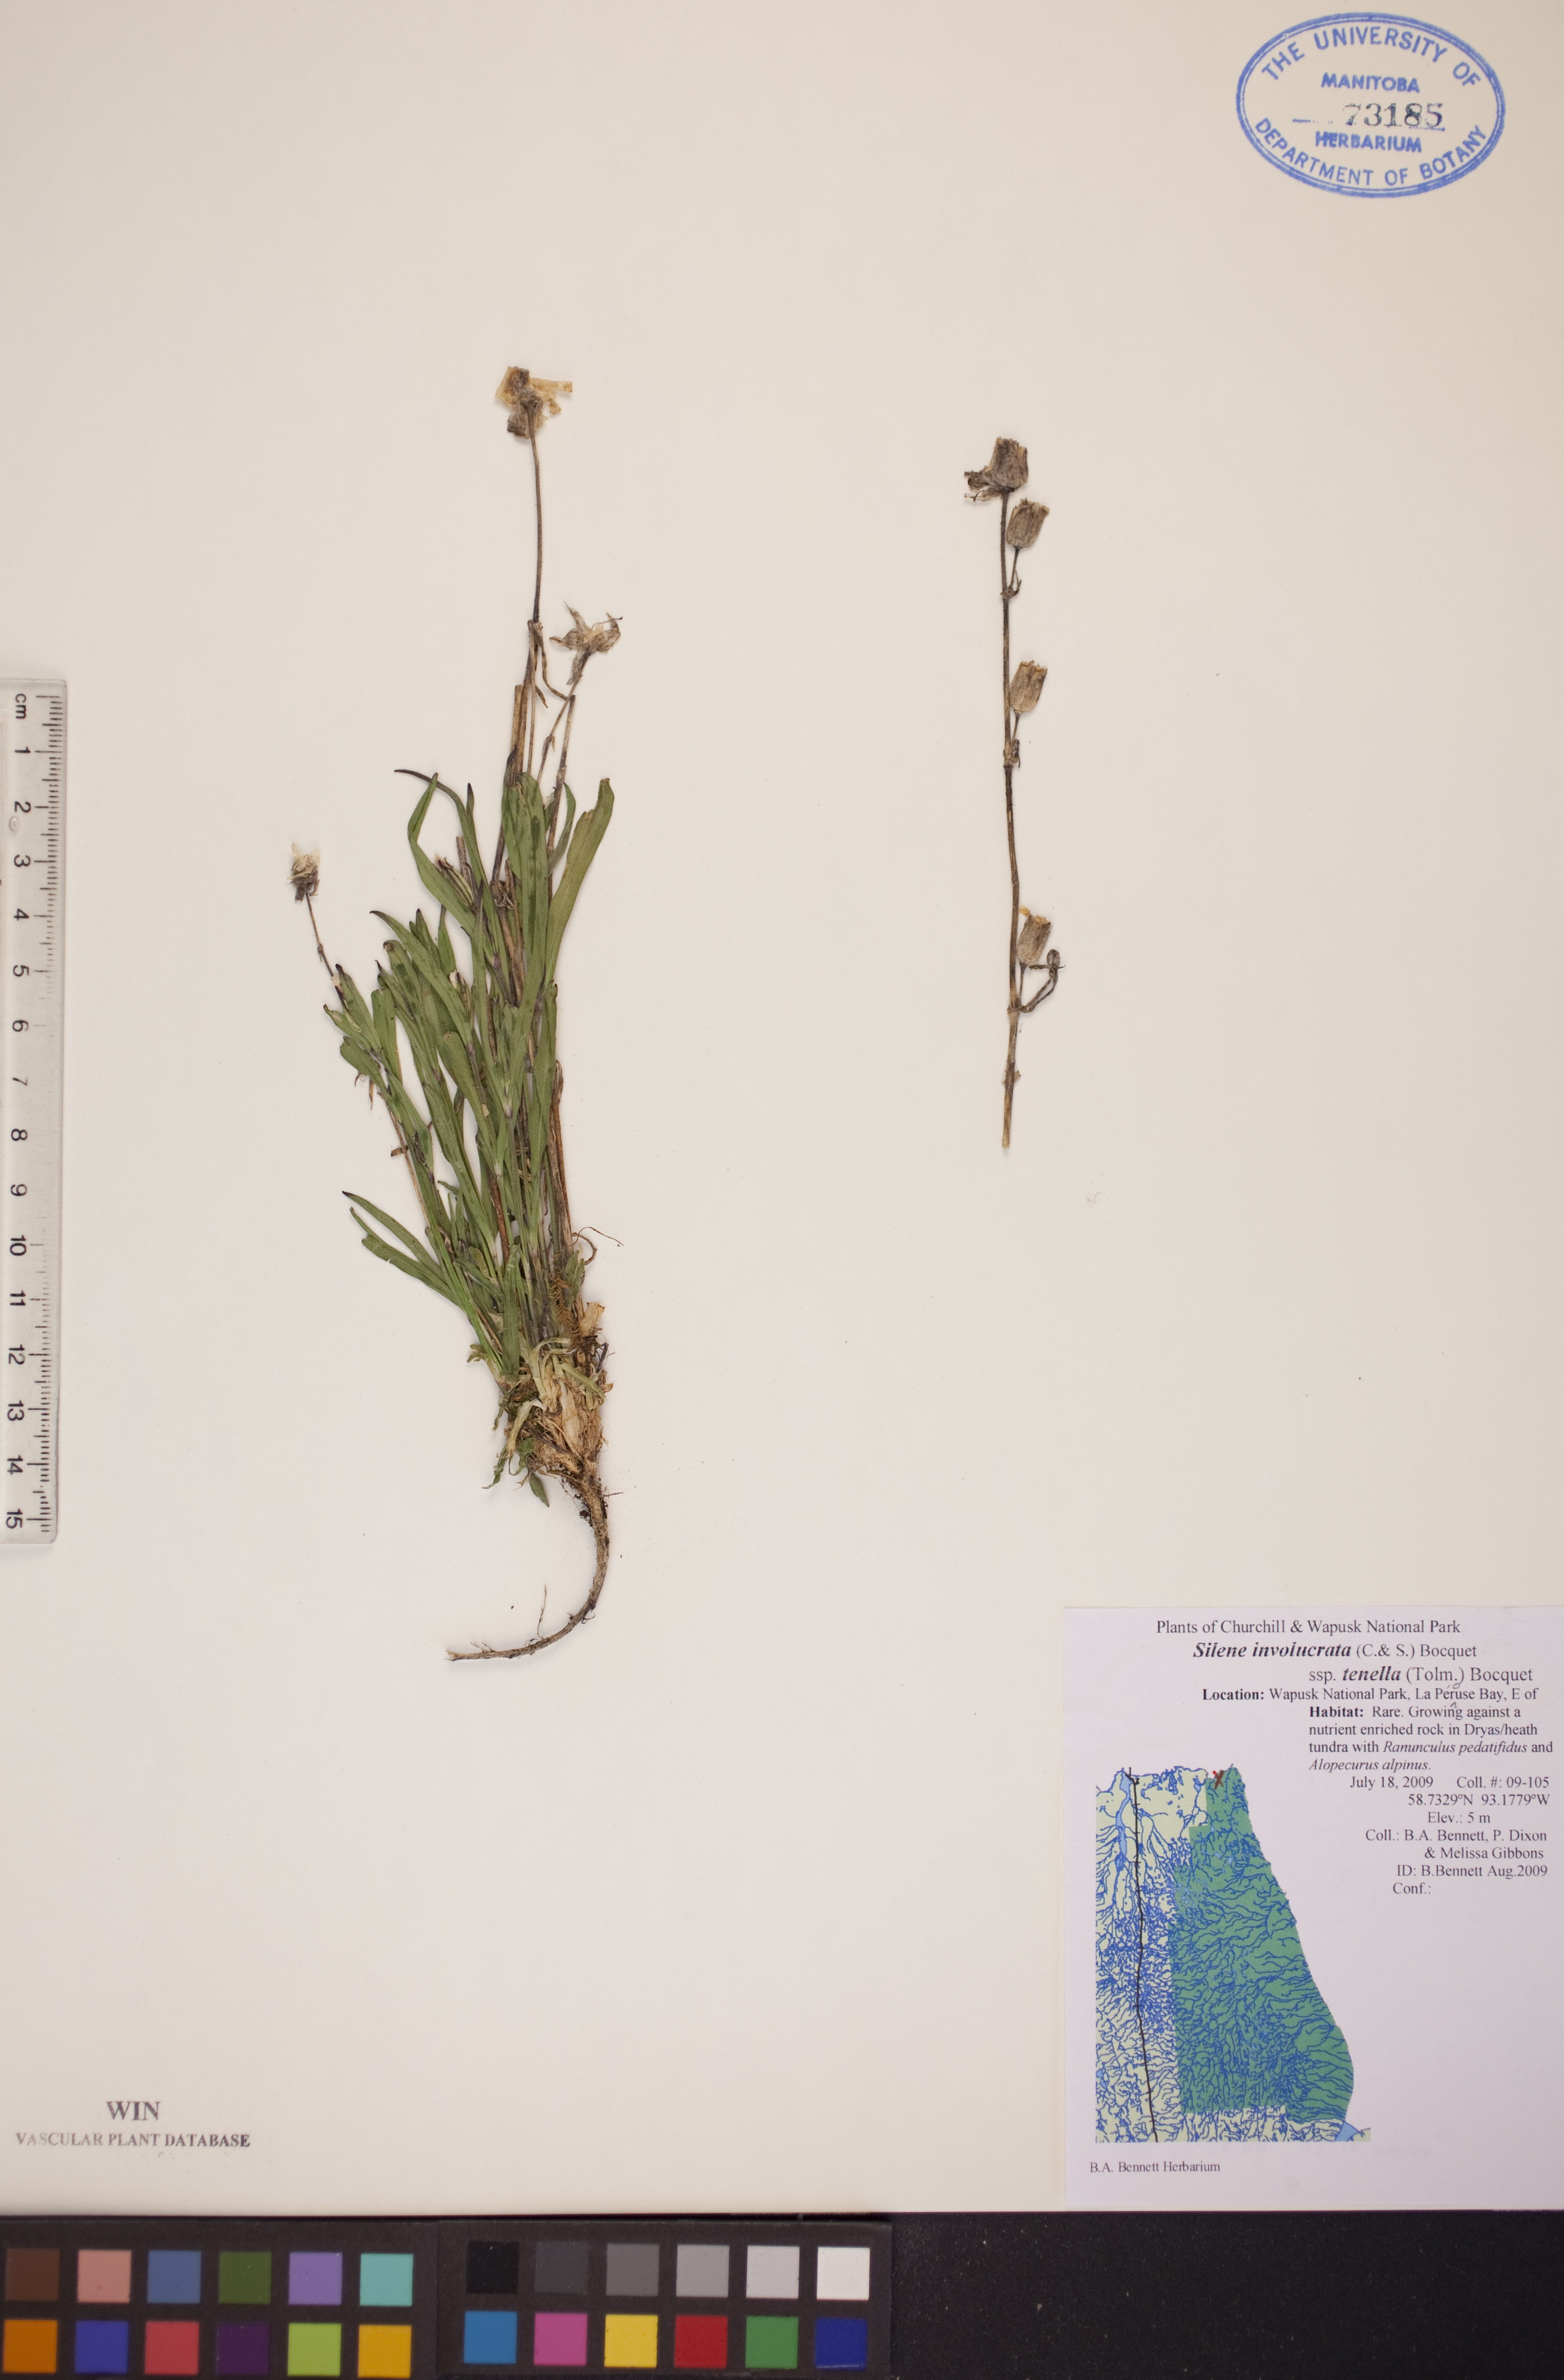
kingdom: Plantae
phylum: Tracheophyta
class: Magnoliopsida
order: Caryophyllales
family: Caryophyllaceae
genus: Silene
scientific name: Silene involucrata
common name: Greater arctic campion
